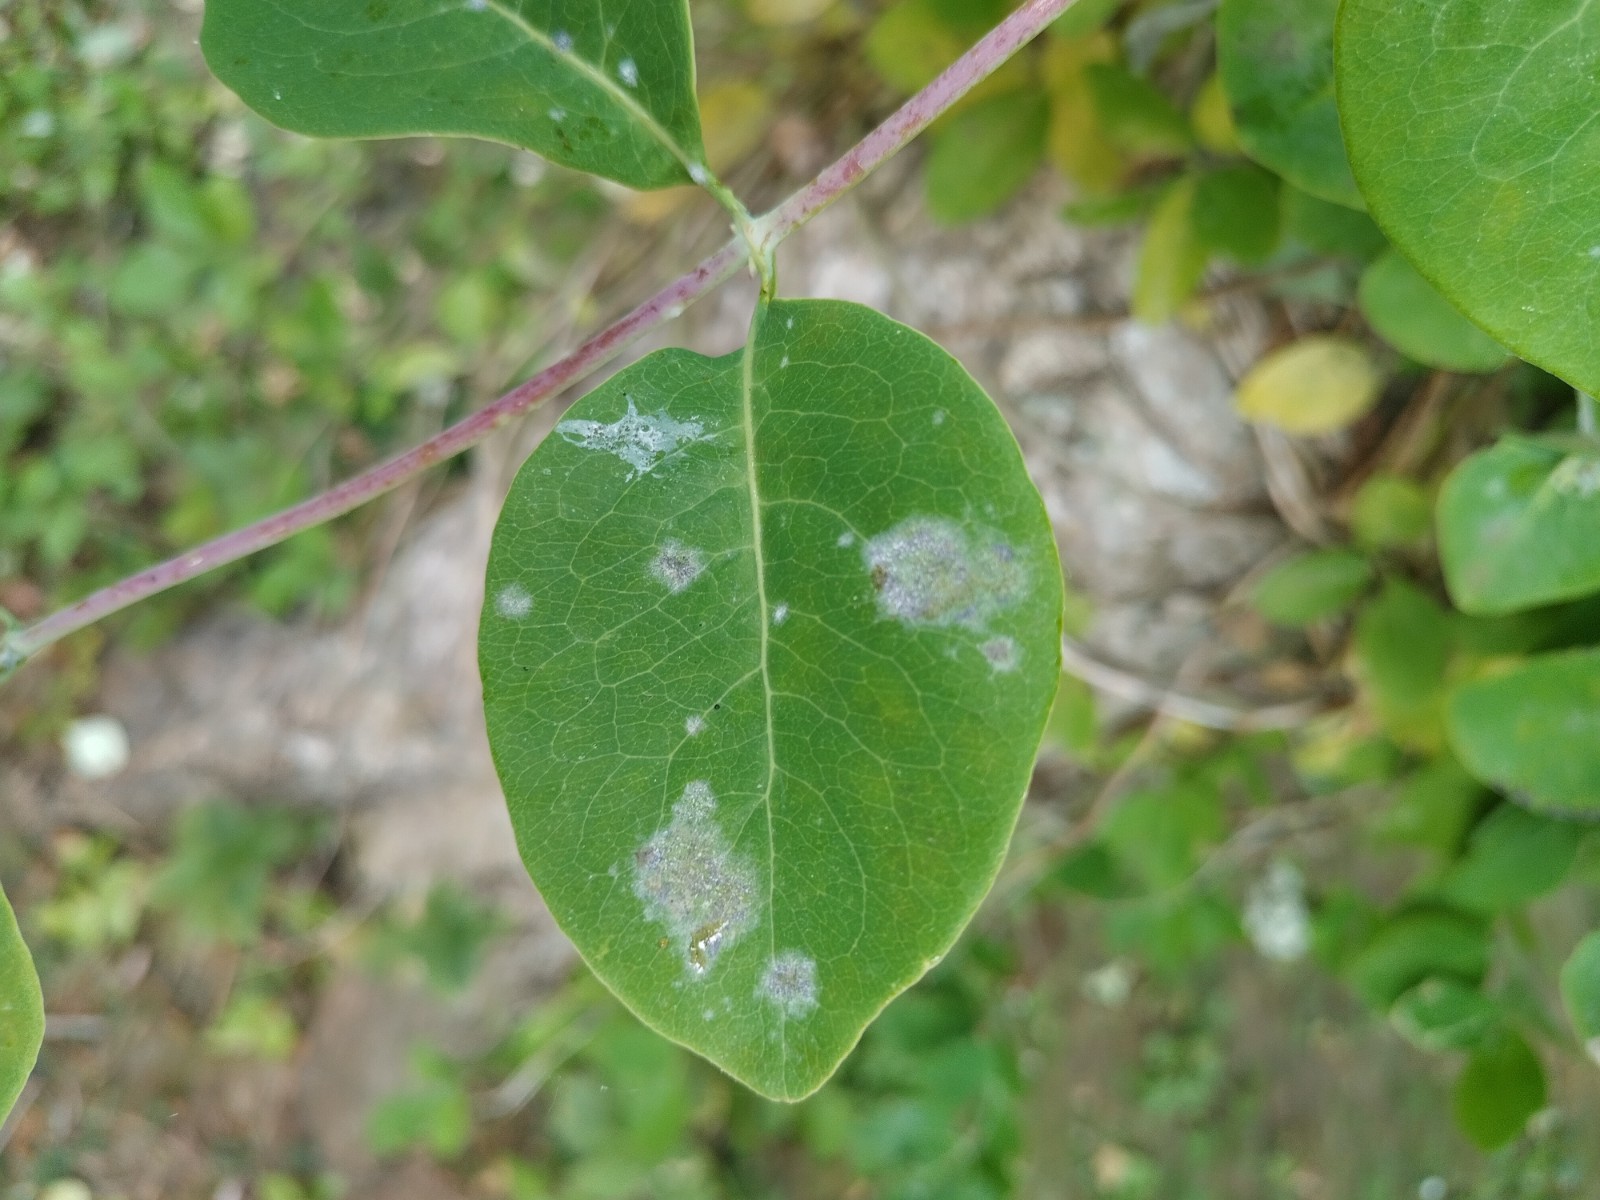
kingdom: Fungi
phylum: Ascomycota
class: Leotiomycetes
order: Helotiales
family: Erysiphaceae
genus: Erysiphe
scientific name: Erysiphe lonicerae
